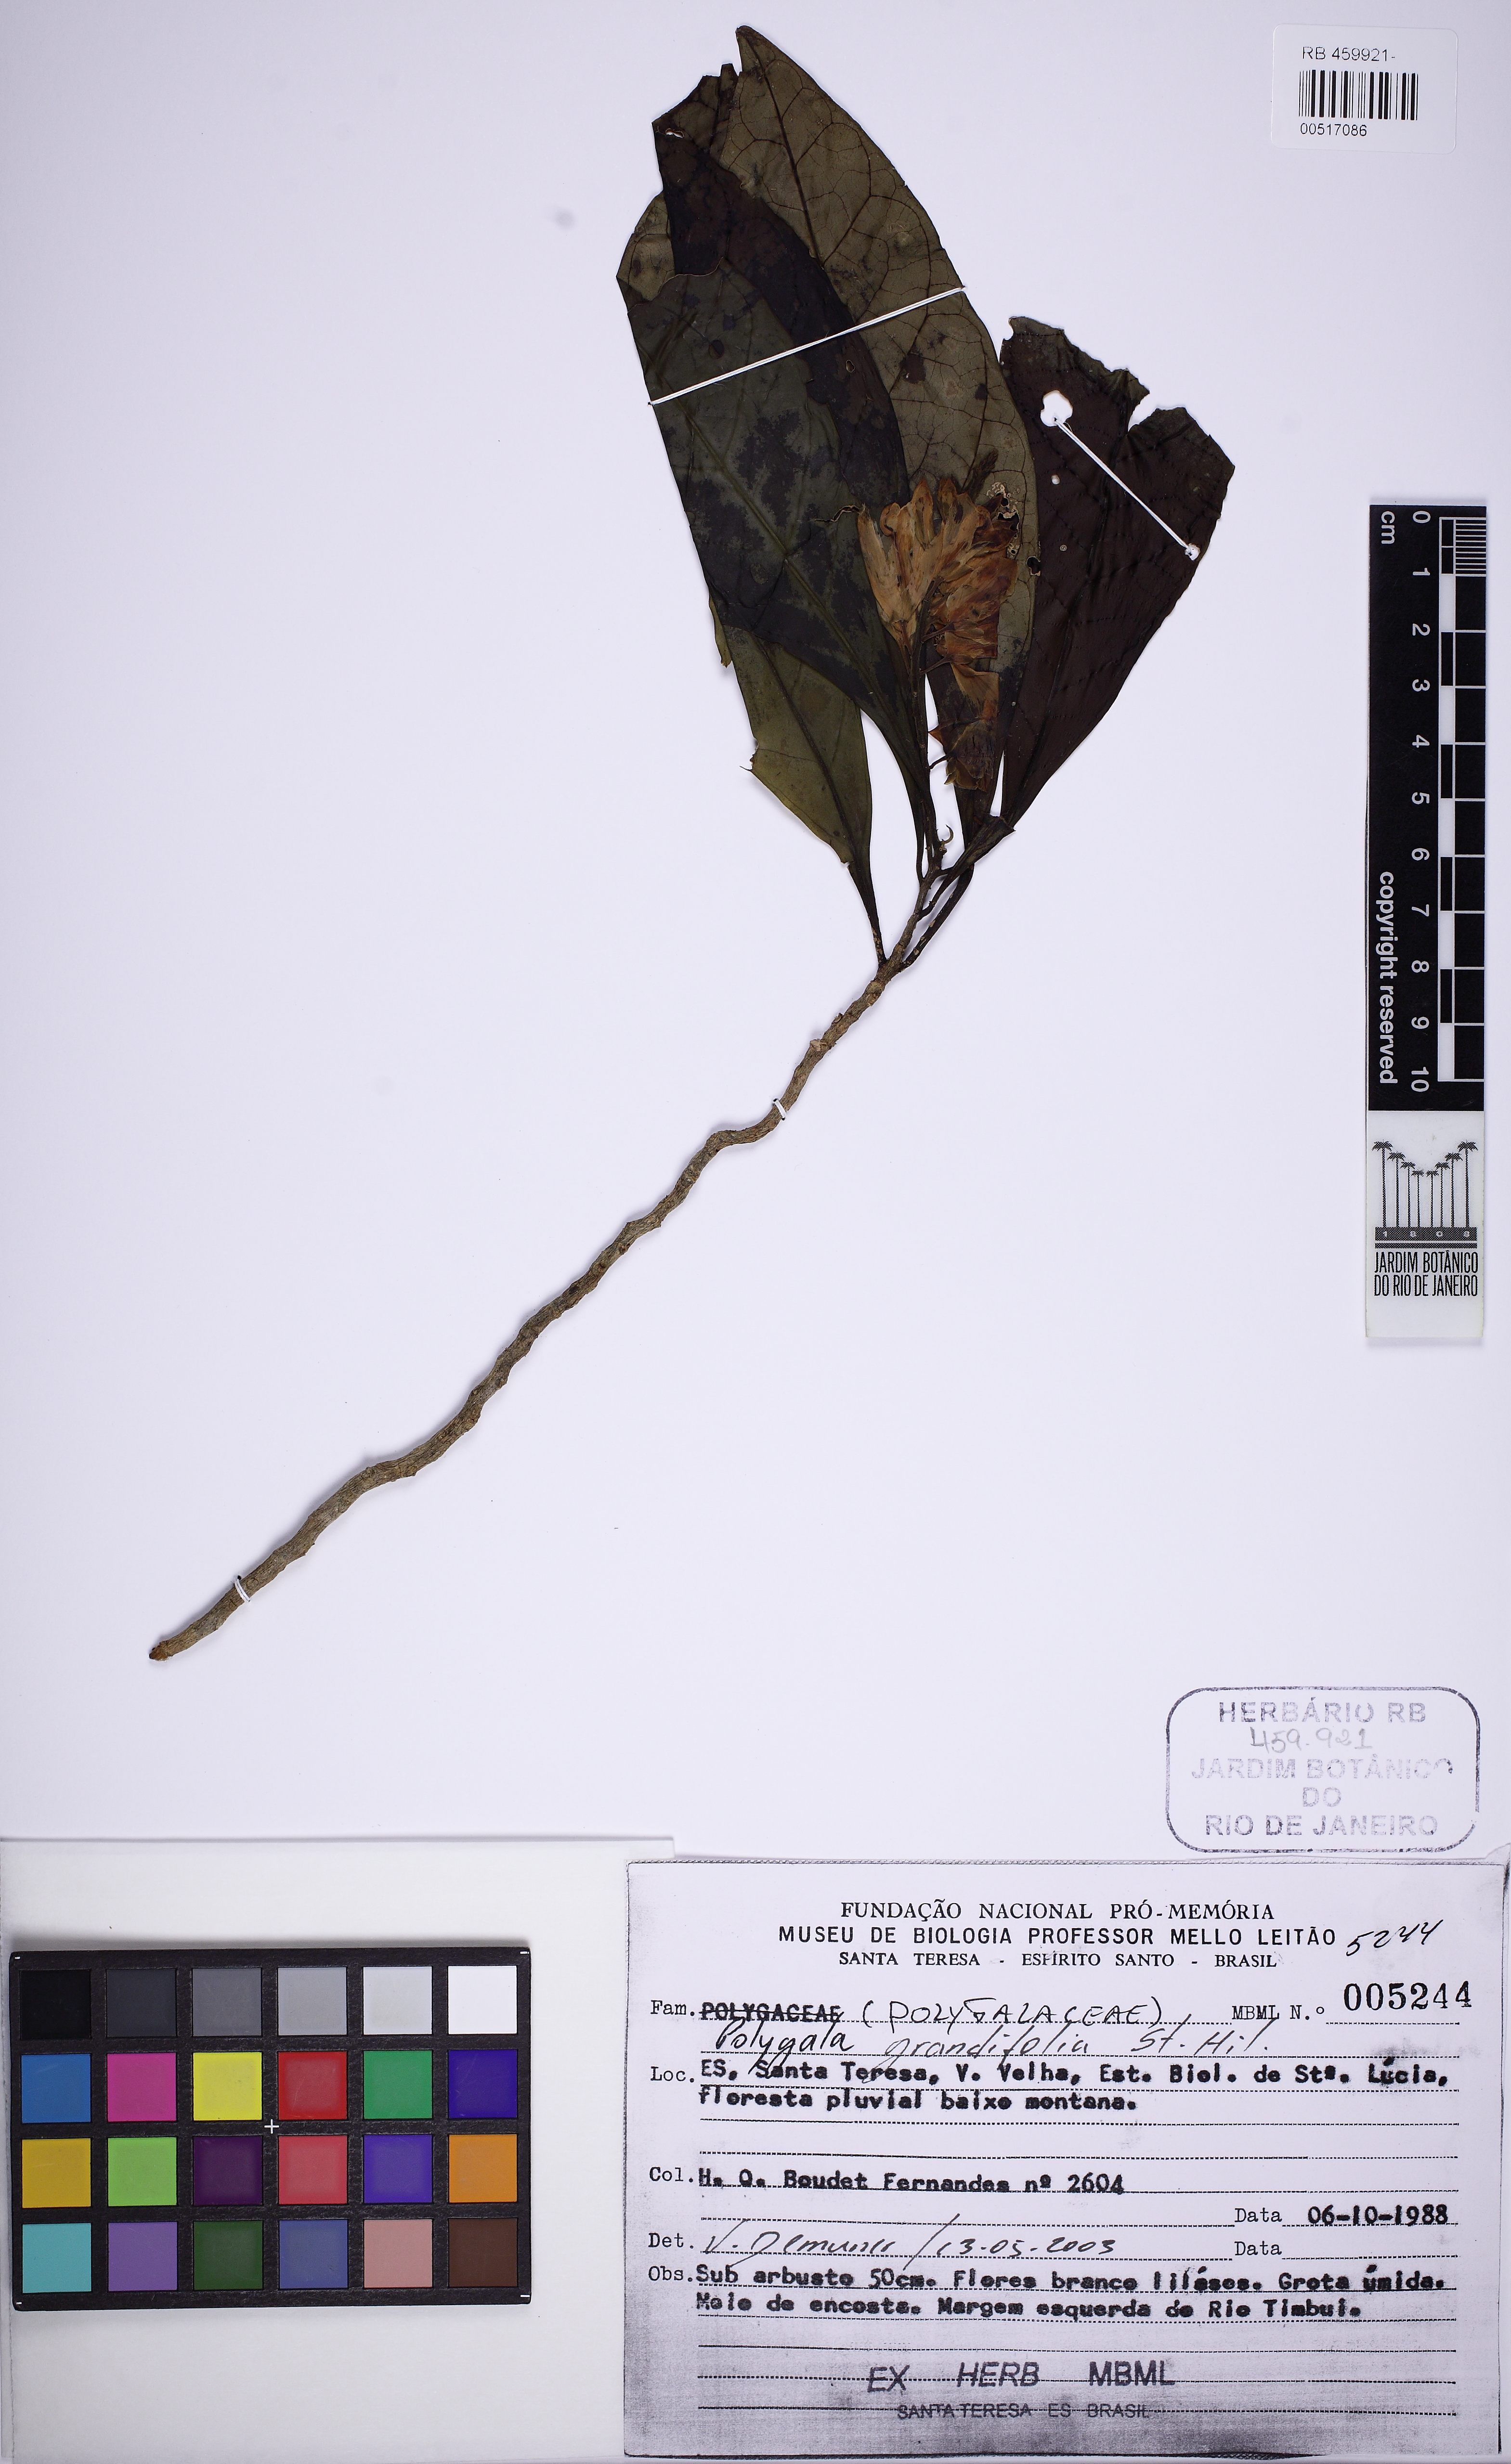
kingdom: Plantae
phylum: Tracheophyta
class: Magnoliopsida
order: Fabales
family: Polygalaceae
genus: Caamembeca
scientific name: Caamembeca grandifolia
